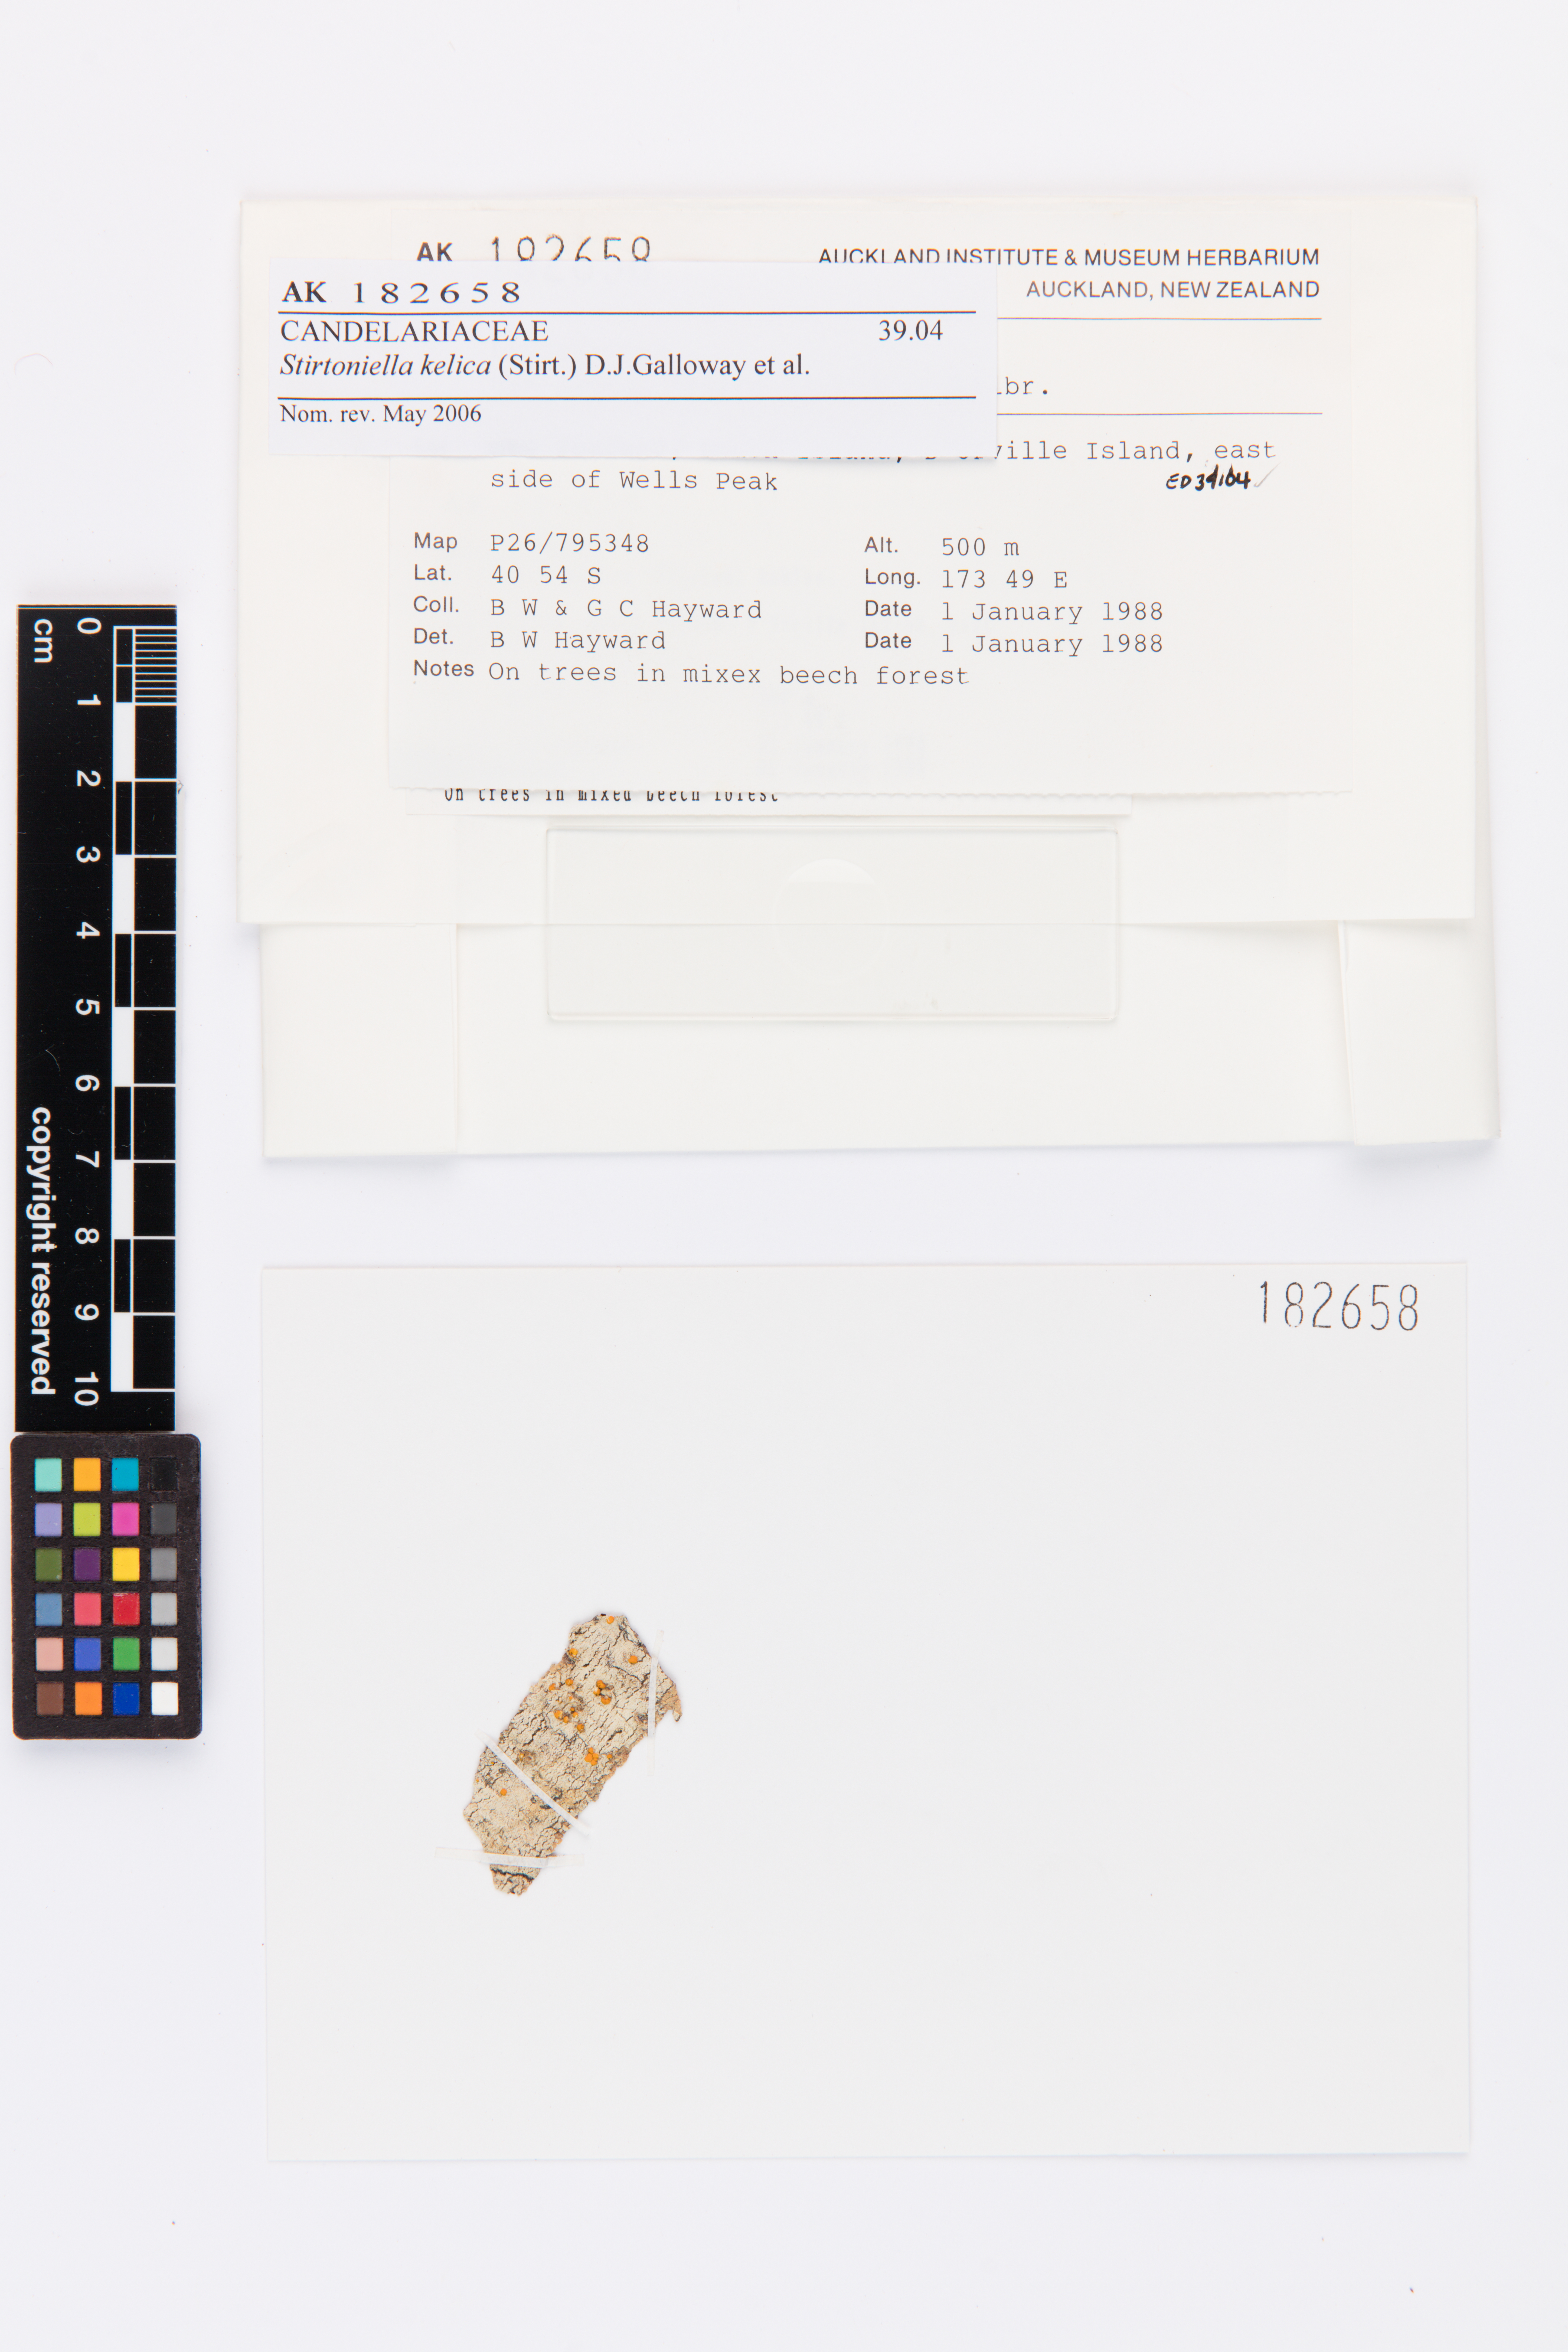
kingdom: Fungi
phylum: Ascomycota
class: Lecanoromycetes
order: Lecanorales
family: Ramalinaceae
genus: Stirtoniella
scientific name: Stirtoniella kelica
